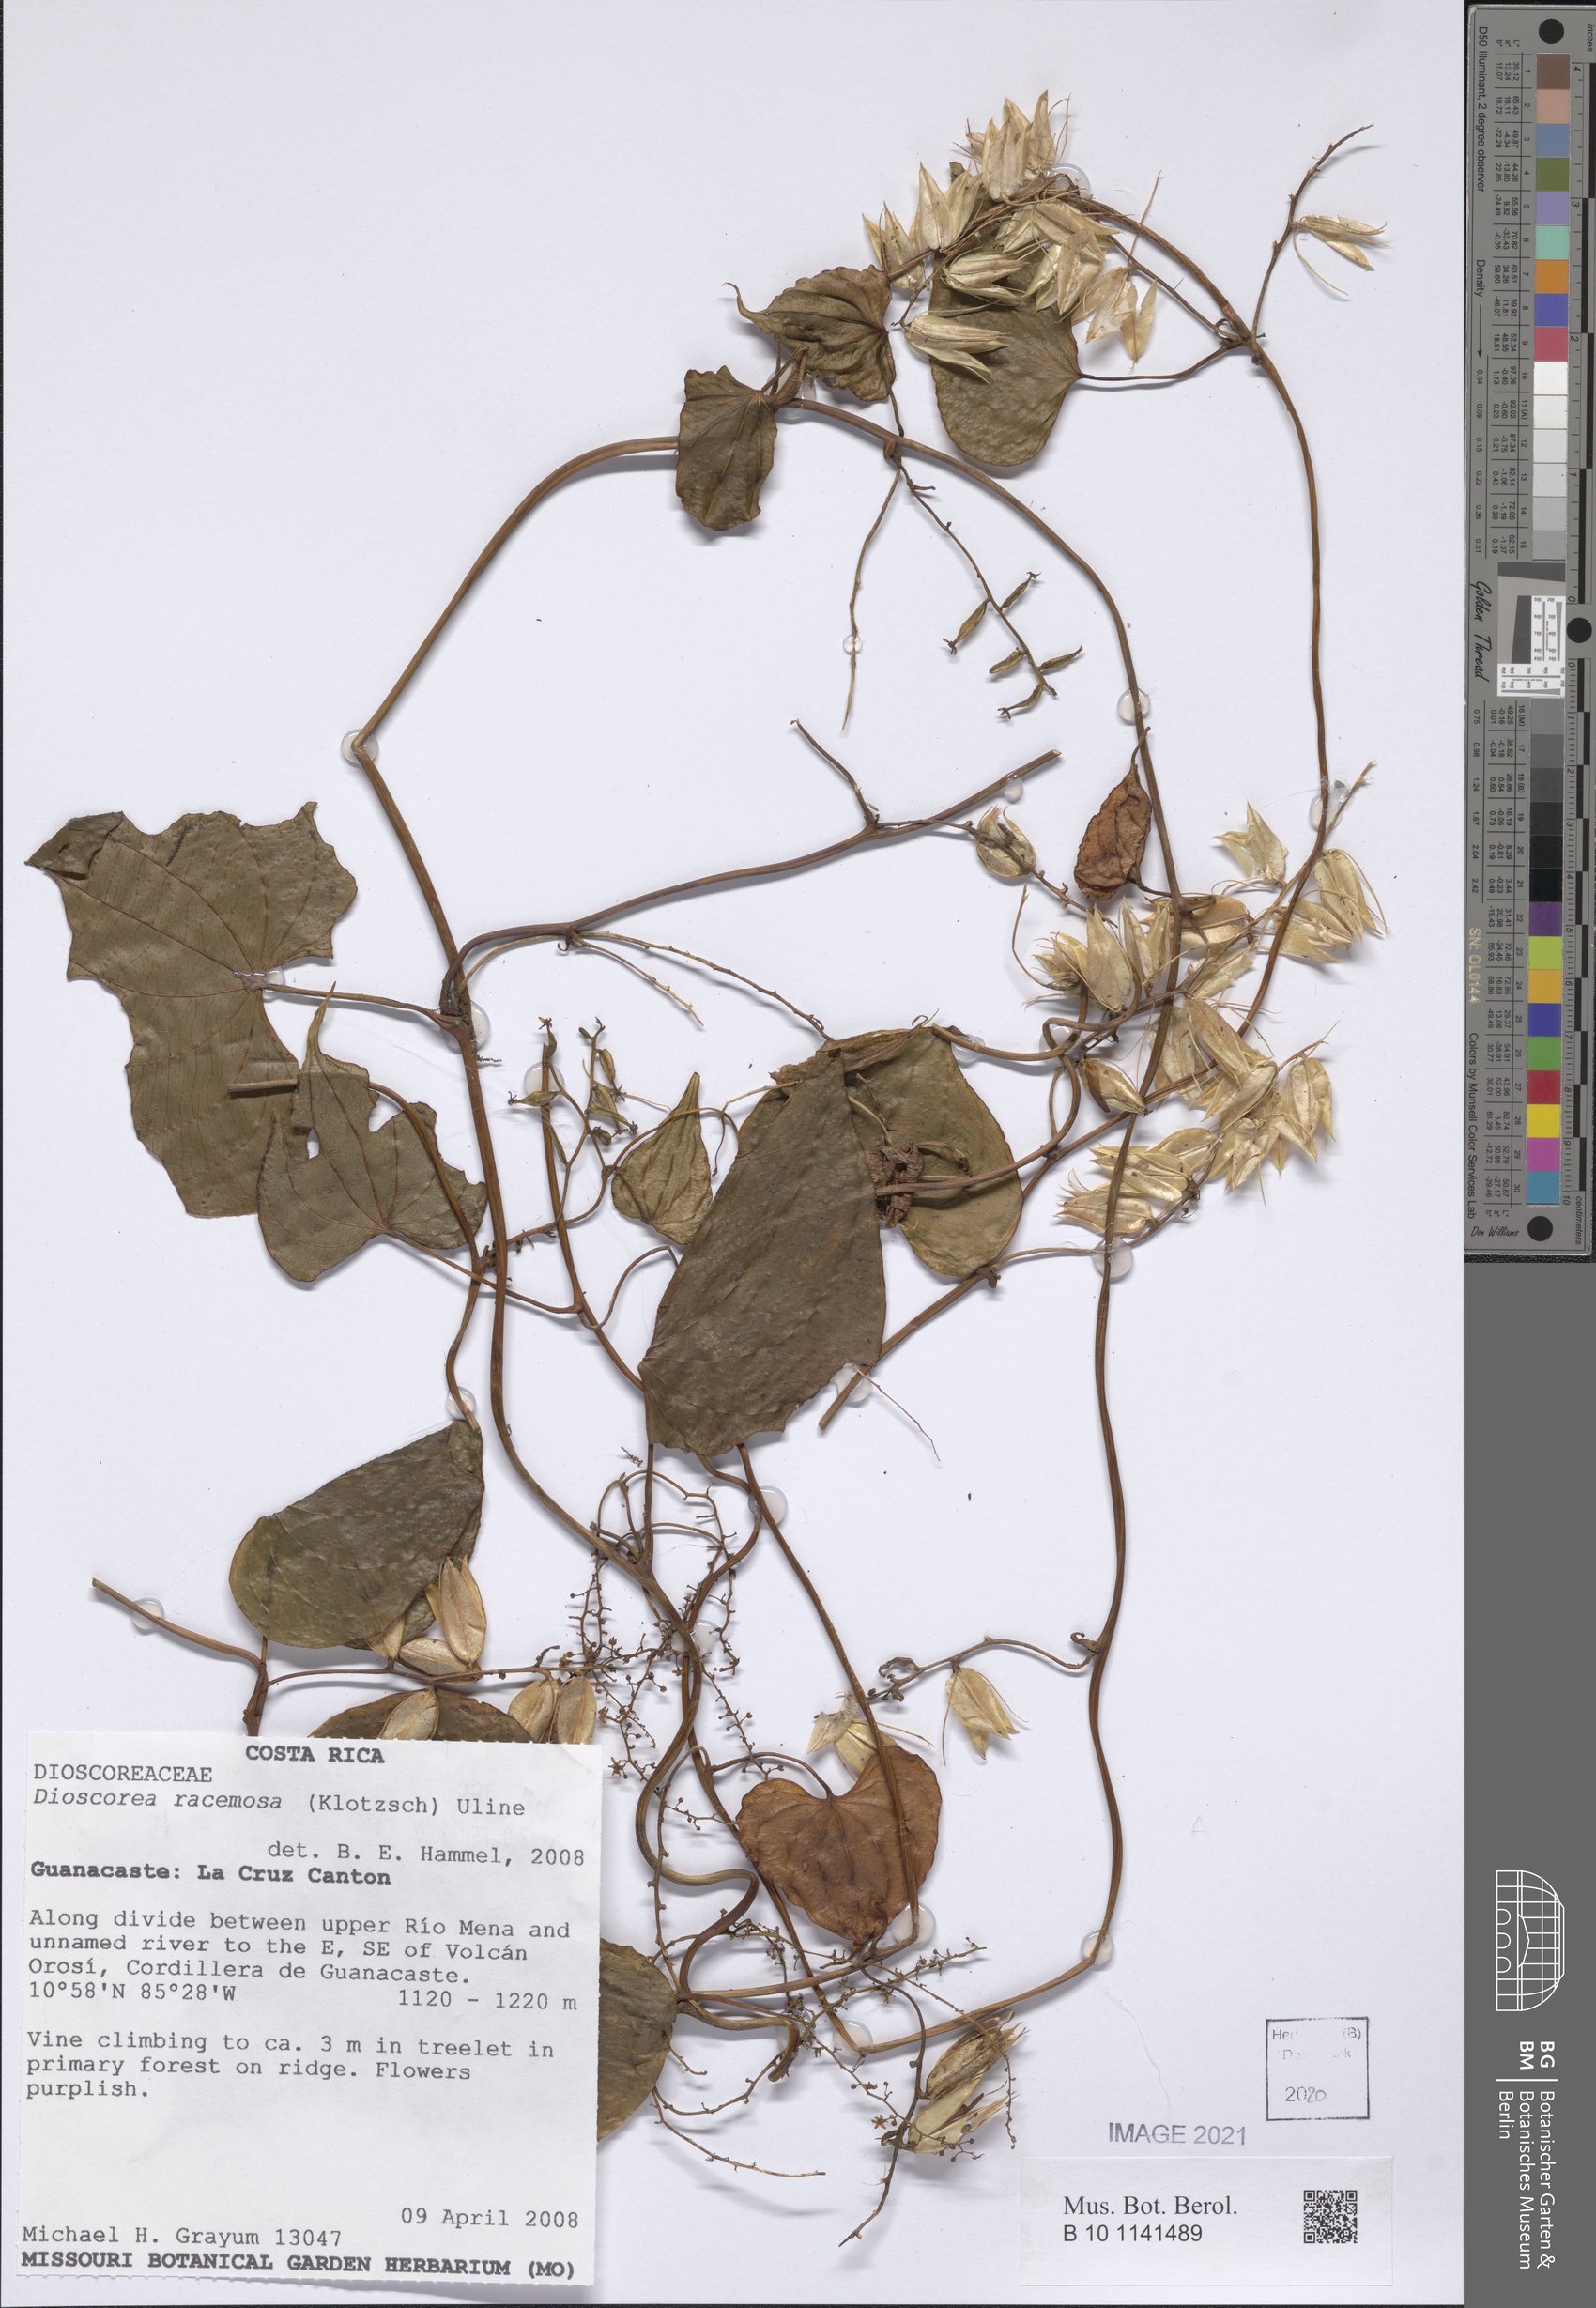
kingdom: Plantae
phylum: Tracheophyta
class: Liliopsida
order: Dioscoreales
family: Dioscoreaceae
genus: Dioscorea
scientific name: Dioscorea racemosa
